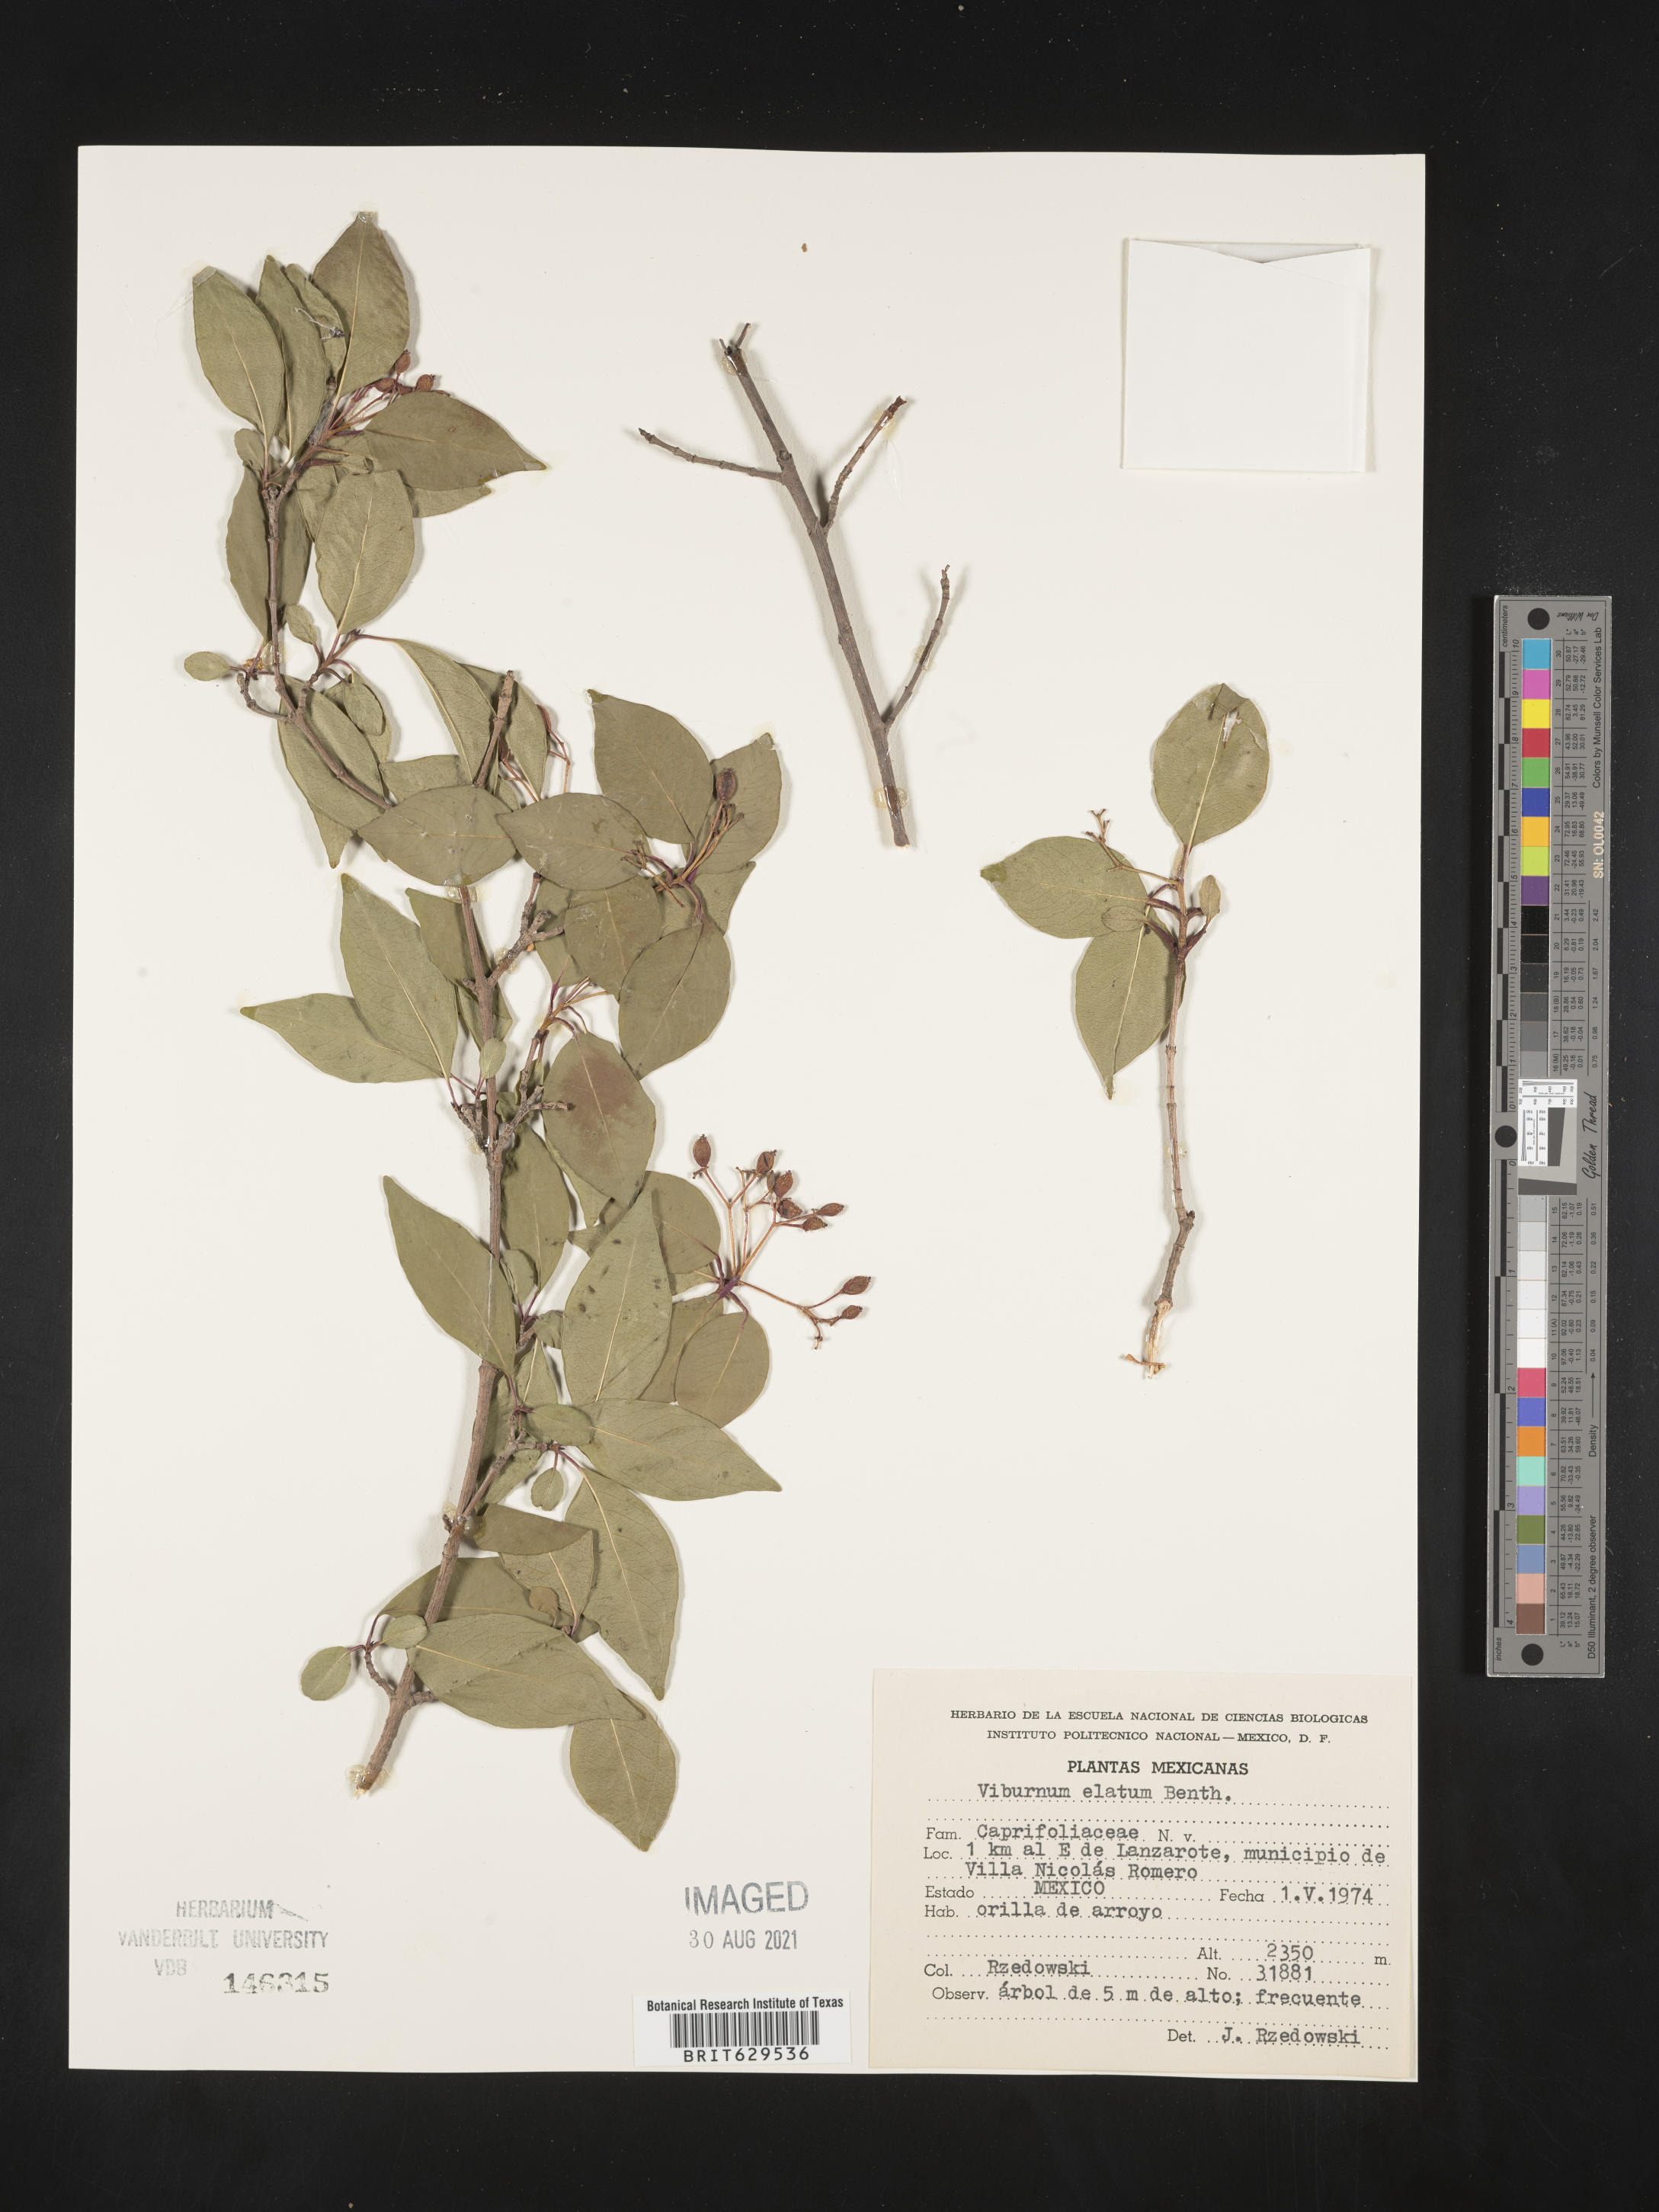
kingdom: Plantae
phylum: Tracheophyta
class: Magnoliopsida
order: Dipsacales
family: Viburnaceae
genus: Viburnum
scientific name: Viburnum
